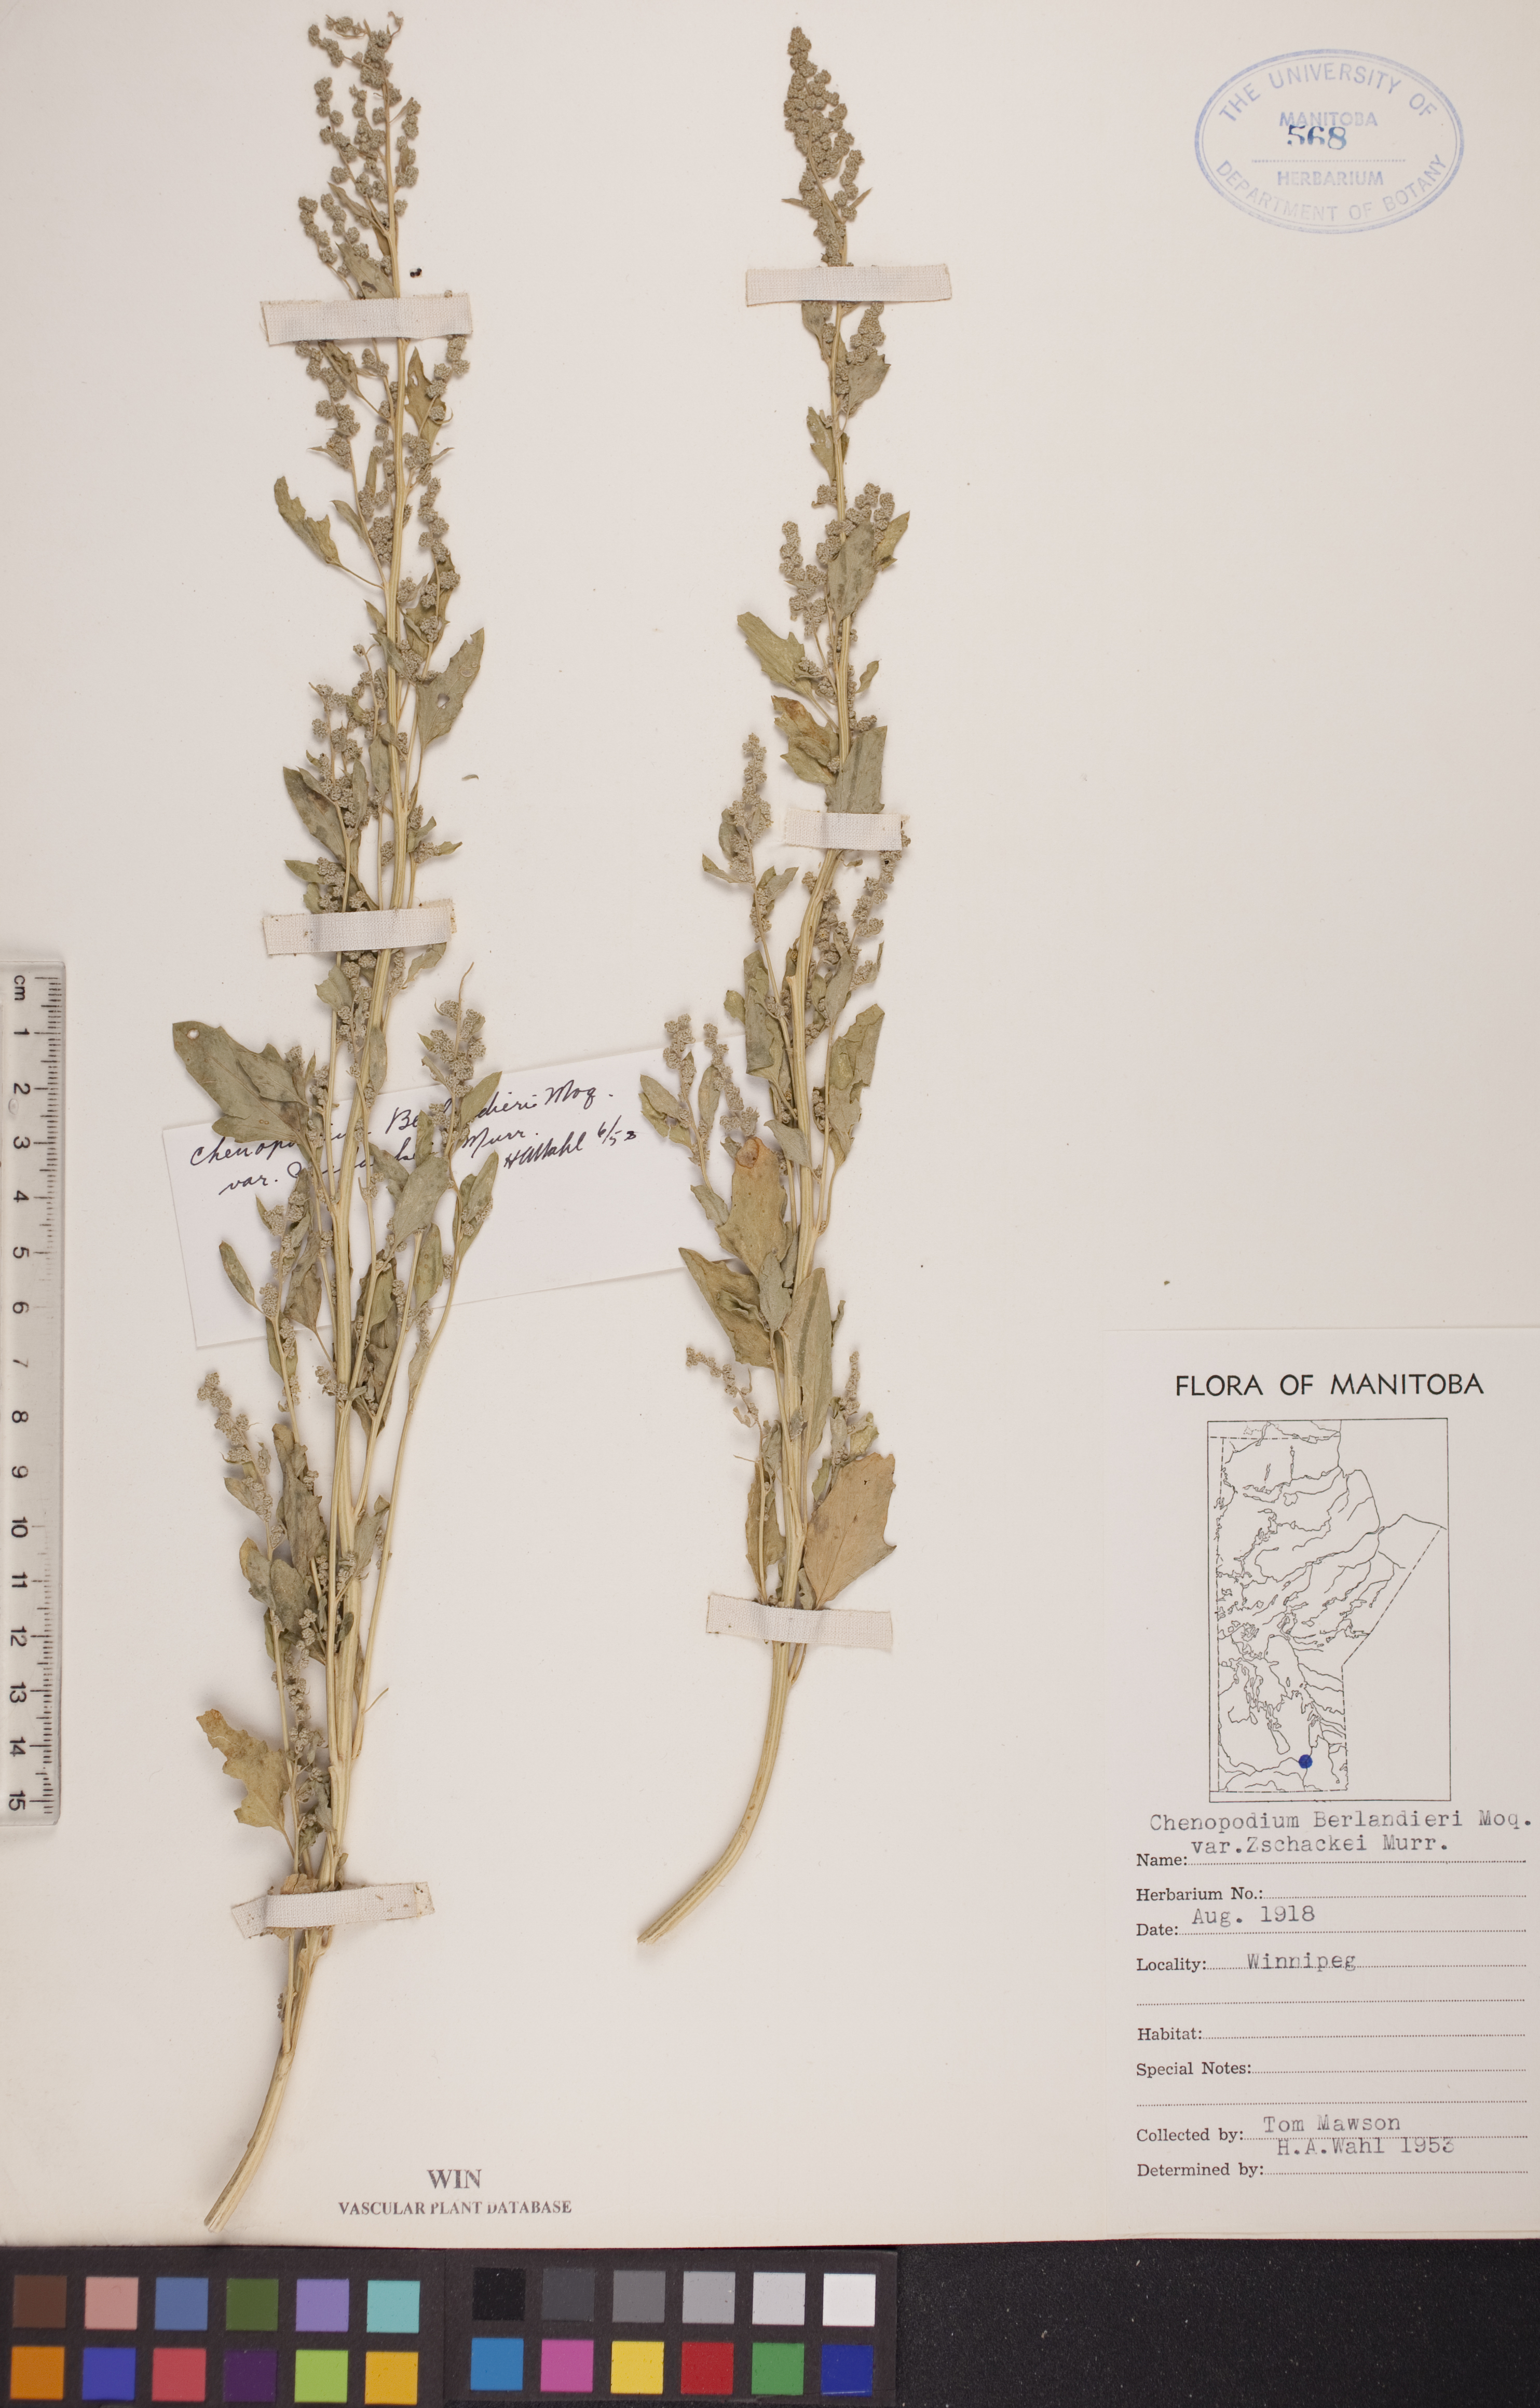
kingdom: Plantae
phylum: Tracheophyta
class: Magnoliopsida
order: Caryophyllales
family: Amaranthaceae
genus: Chenopodium
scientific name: Chenopodium berlandieri
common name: Pit-seed goosefoot
